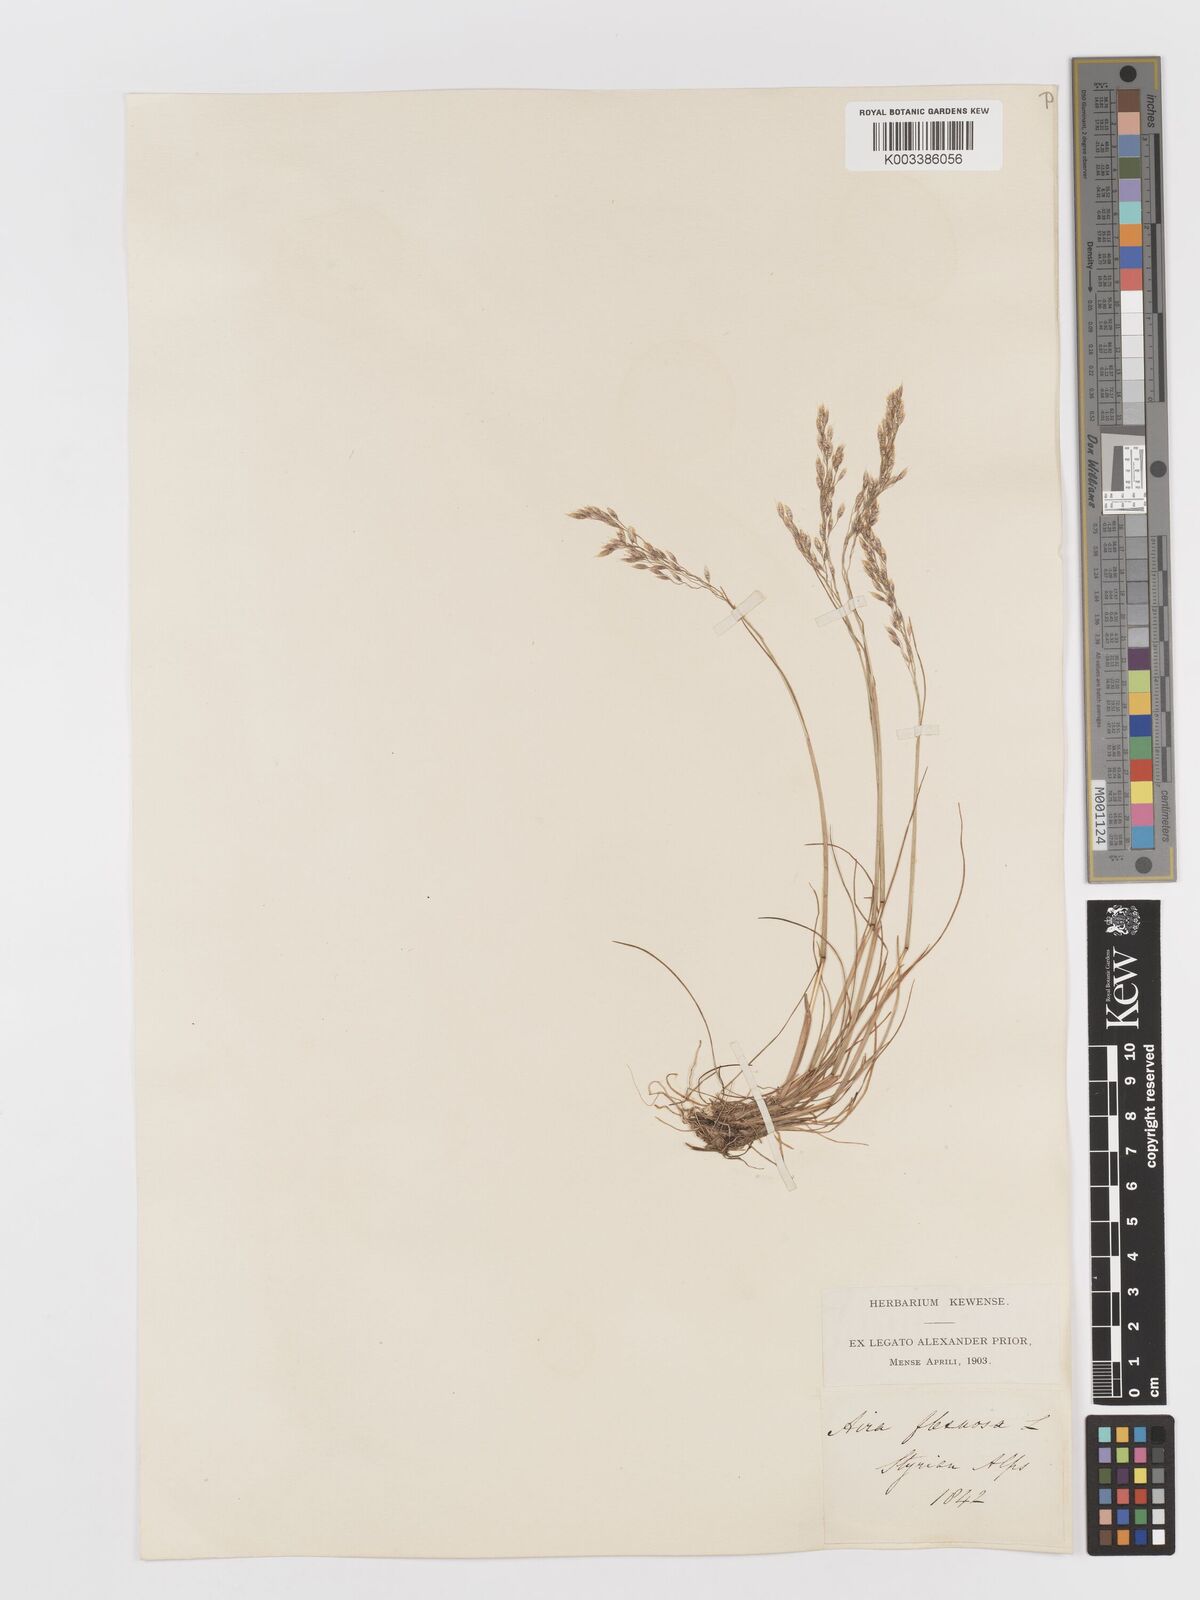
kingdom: Plantae
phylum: Tracheophyta
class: Liliopsida
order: Poales
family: Poaceae
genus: Avenella
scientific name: Avenella flexuosa
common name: Wavy hairgrass
